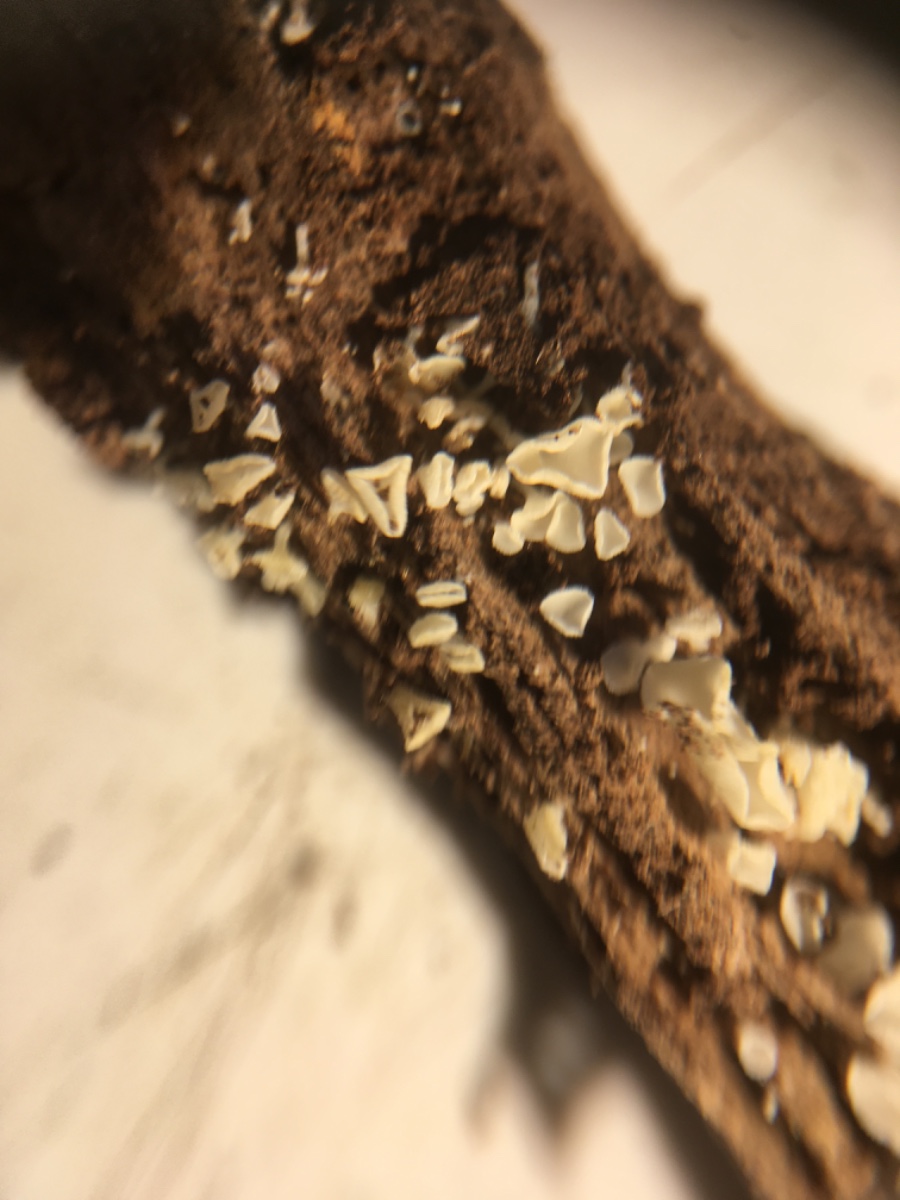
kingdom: Fungi
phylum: Ascomycota
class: Leotiomycetes
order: Helotiales
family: Lachnaceae
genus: Lachnum
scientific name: Lachnum impudicum
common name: vinter-frynseskive
